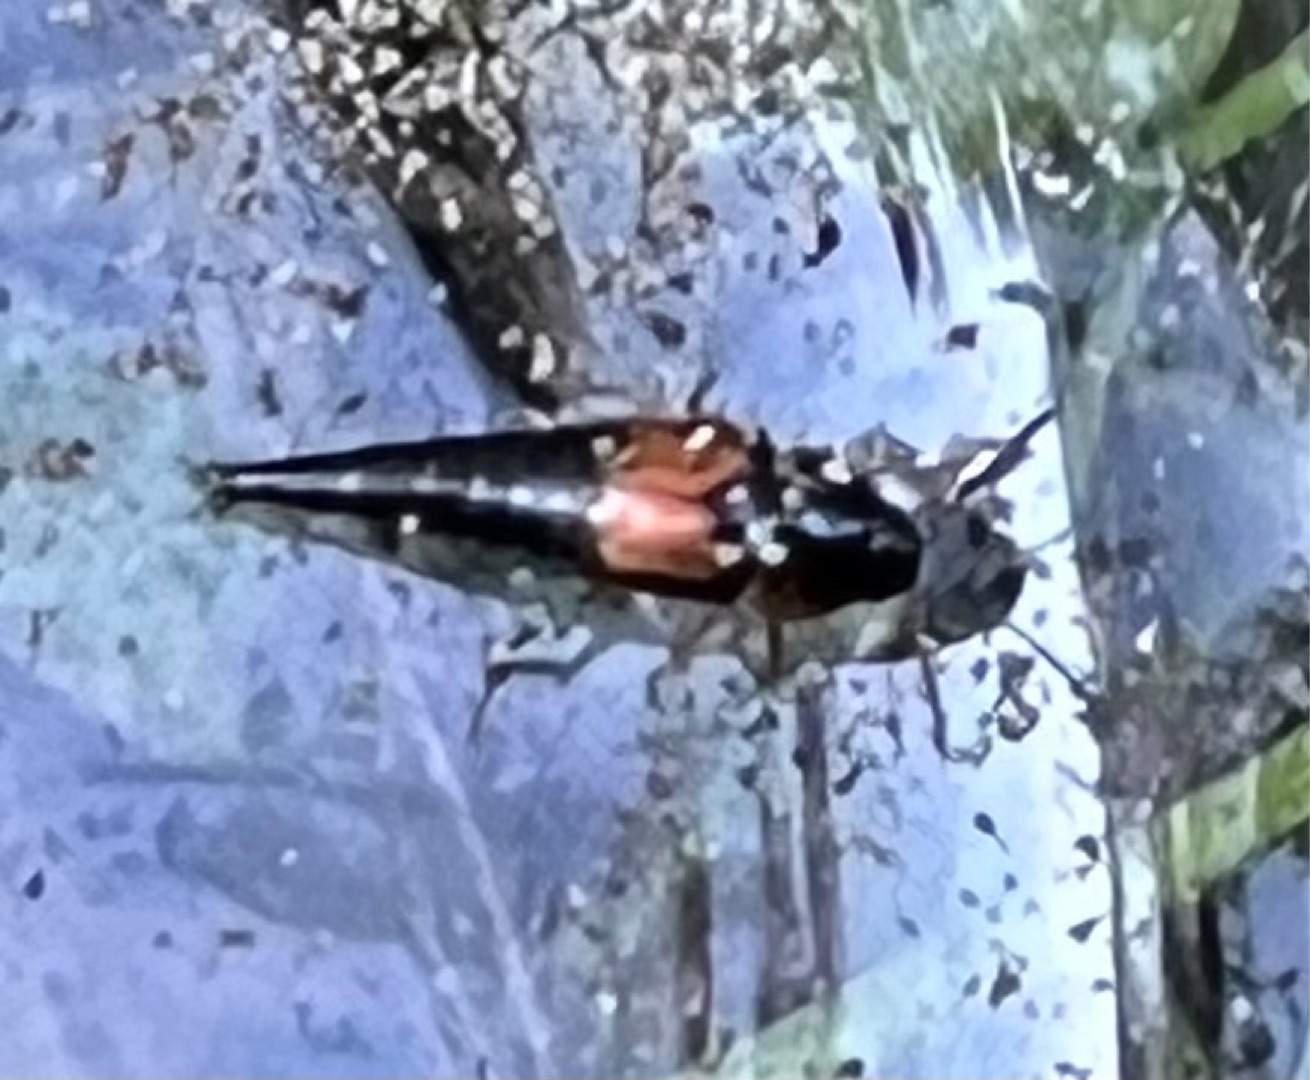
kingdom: Animalia
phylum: Arthropoda
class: Insecta
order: Coleoptera
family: Staphylinidae
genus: Tachyporus
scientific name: Tachyporus hypnorum
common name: Sortplettet agerrovbille
